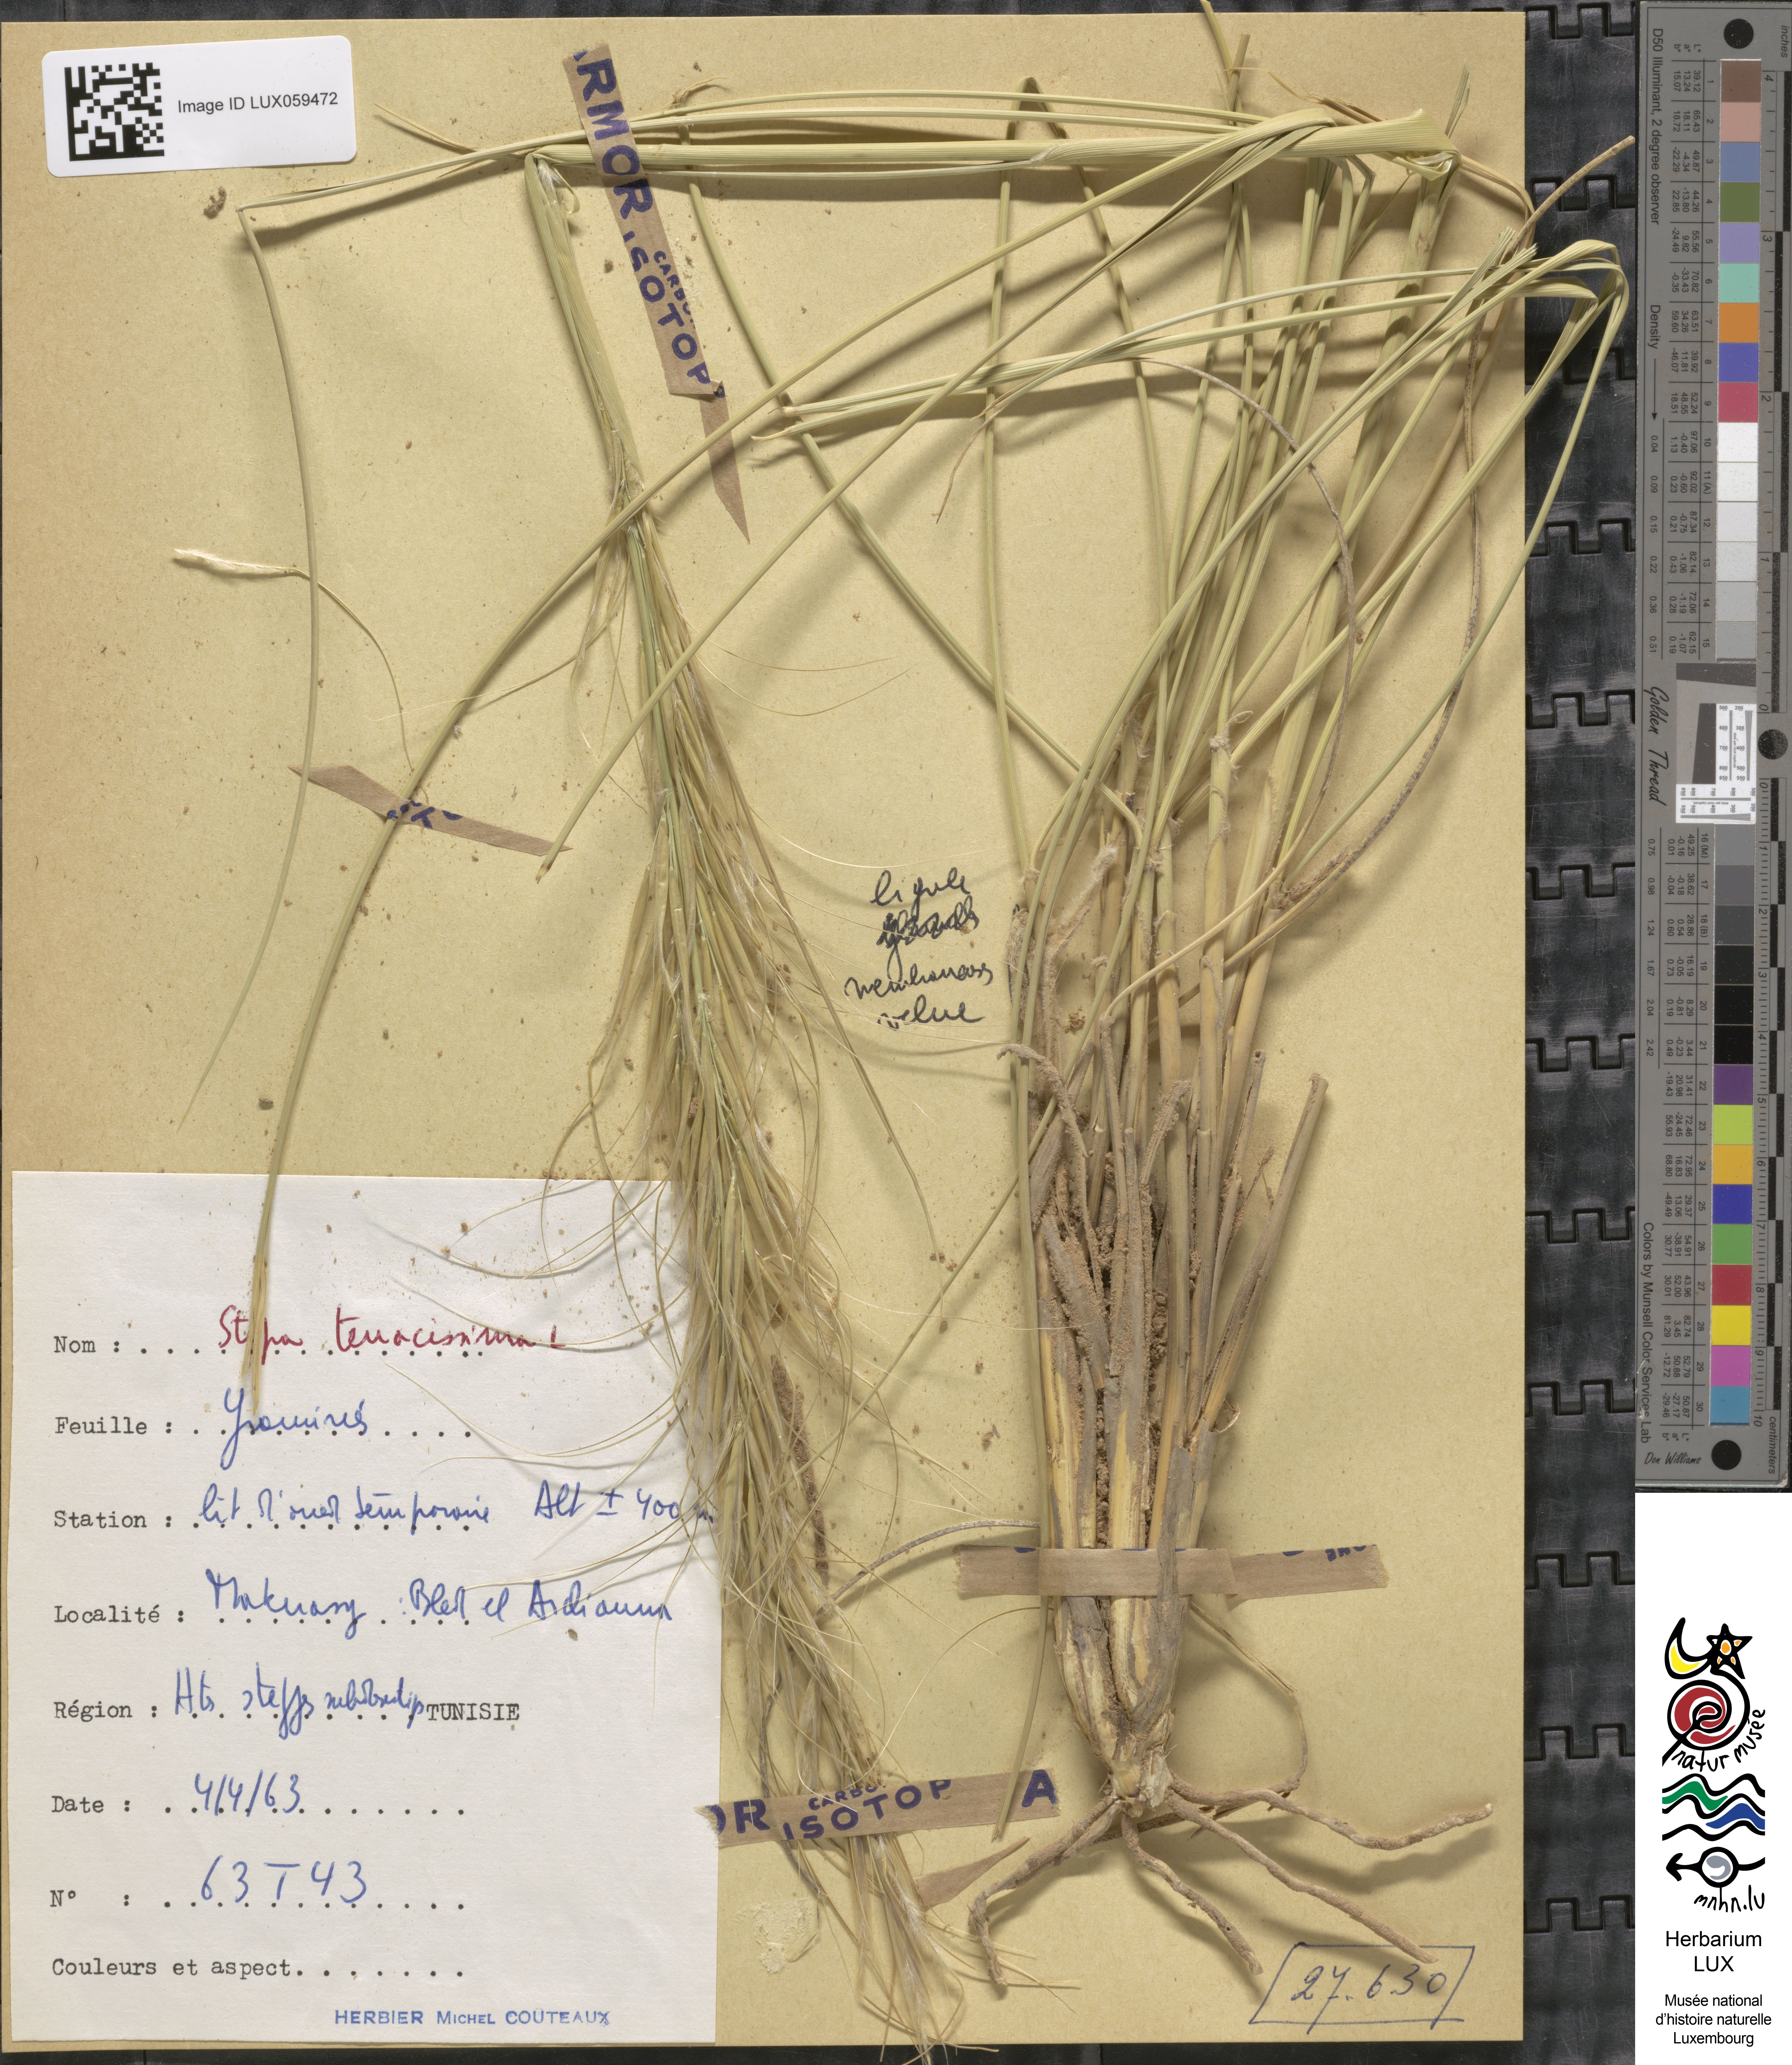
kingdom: Plantae
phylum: Tracheophyta
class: Liliopsida
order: Poales
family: Poaceae
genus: Macrochloa
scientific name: Macrochloa tenacissima
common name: Alfa grass
